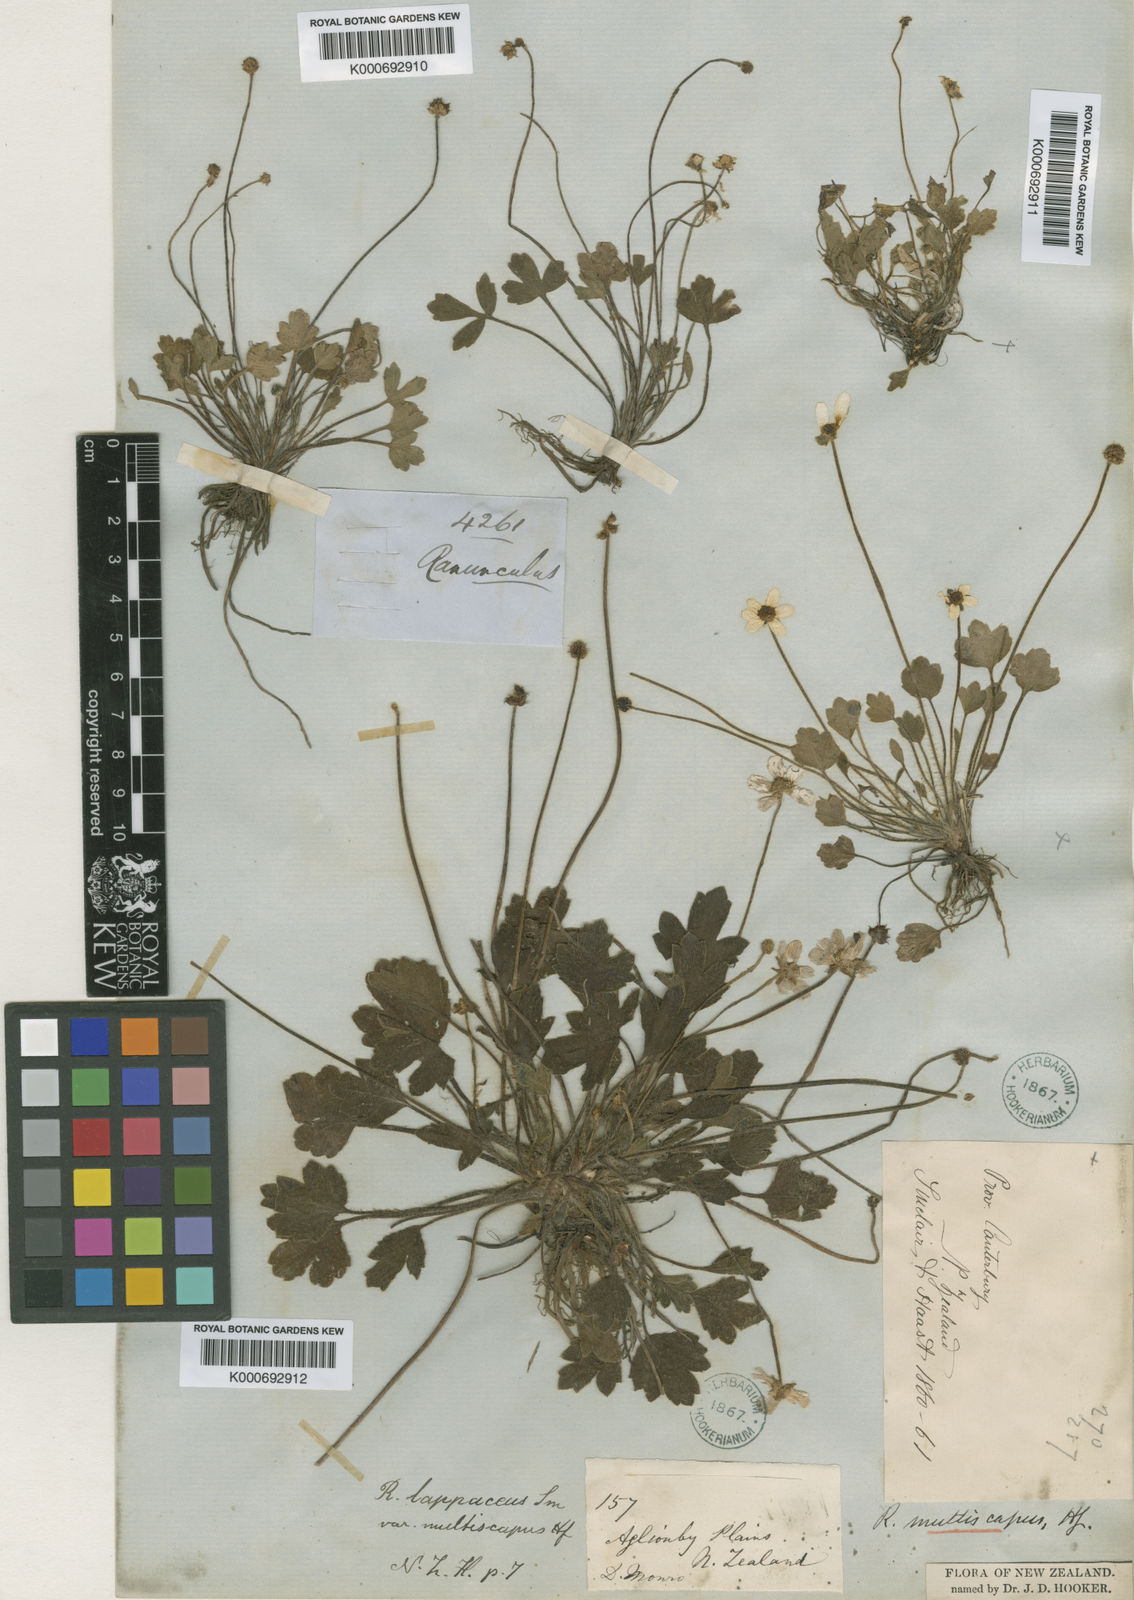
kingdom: Plantae
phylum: Tracheophyta
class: Magnoliopsida
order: Ranunculales
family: Ranunculaceae
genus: Ranunculus
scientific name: Ranunculus lappaceus
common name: Australian buttercup
